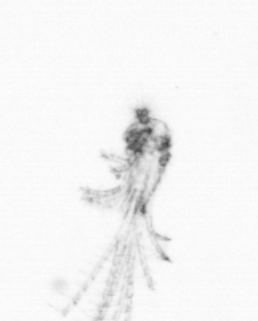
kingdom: Animalia
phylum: Arthropoda
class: Maxillopoda
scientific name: Maxillopoda
